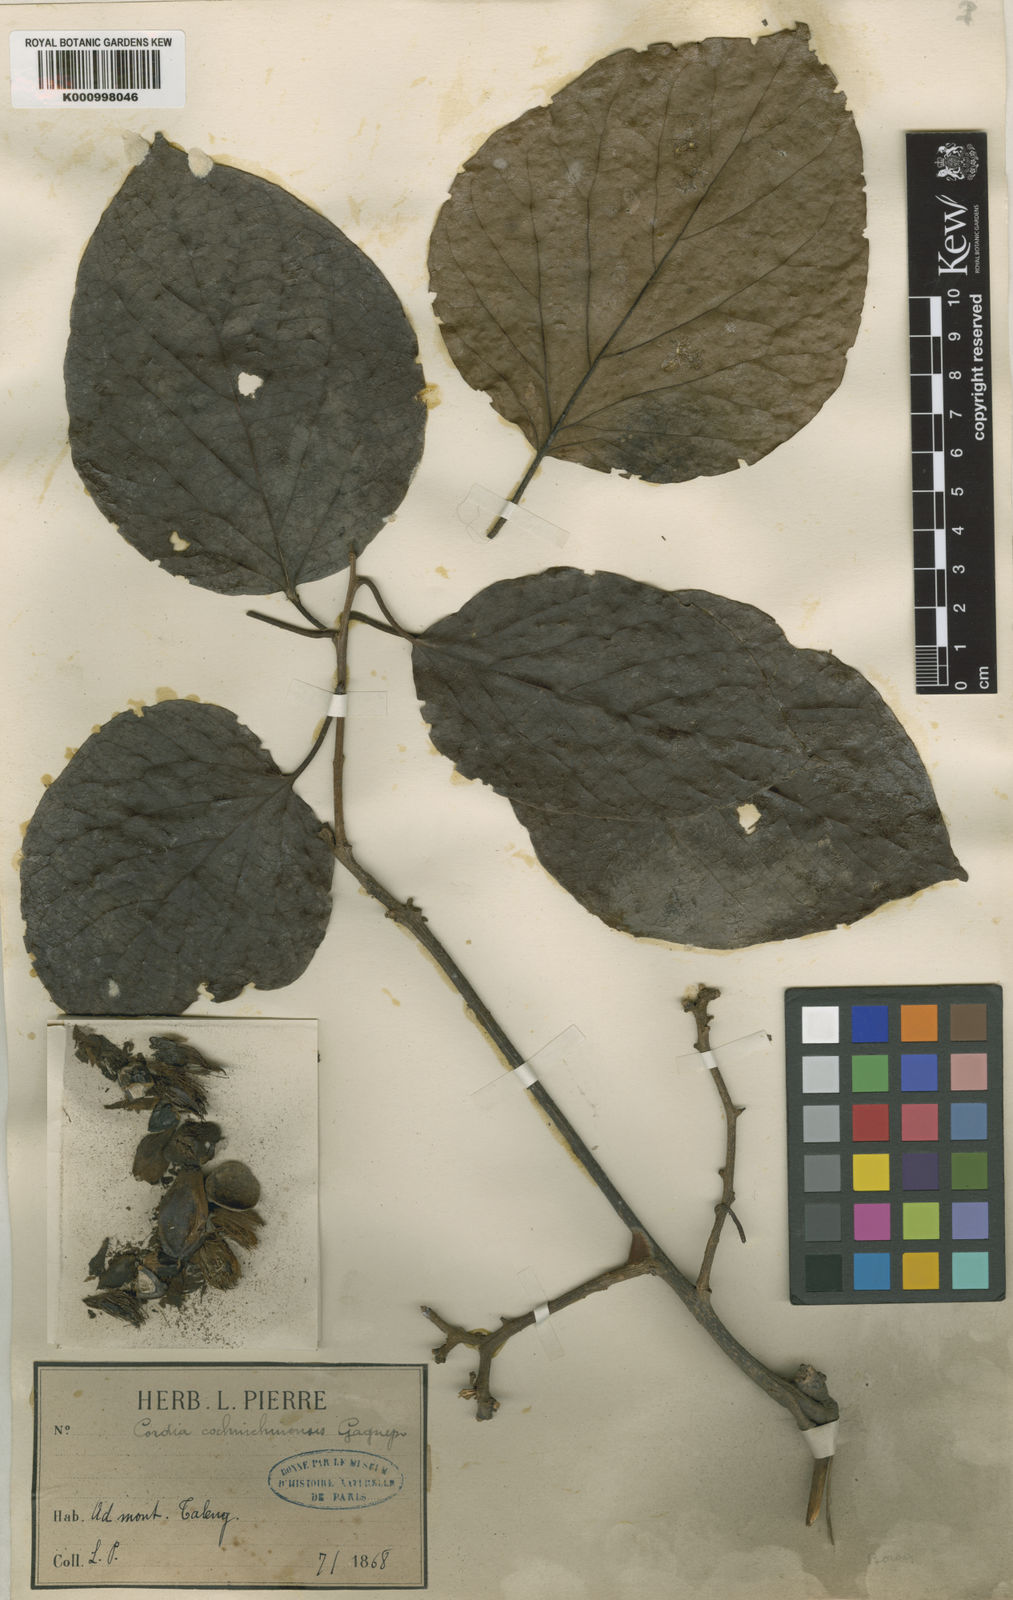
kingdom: Plantae
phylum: Tracheophyta
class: Magnoliopsida
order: Boraginales
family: Cordiaceae
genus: Cordia
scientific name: Cordia cochinchinensis
